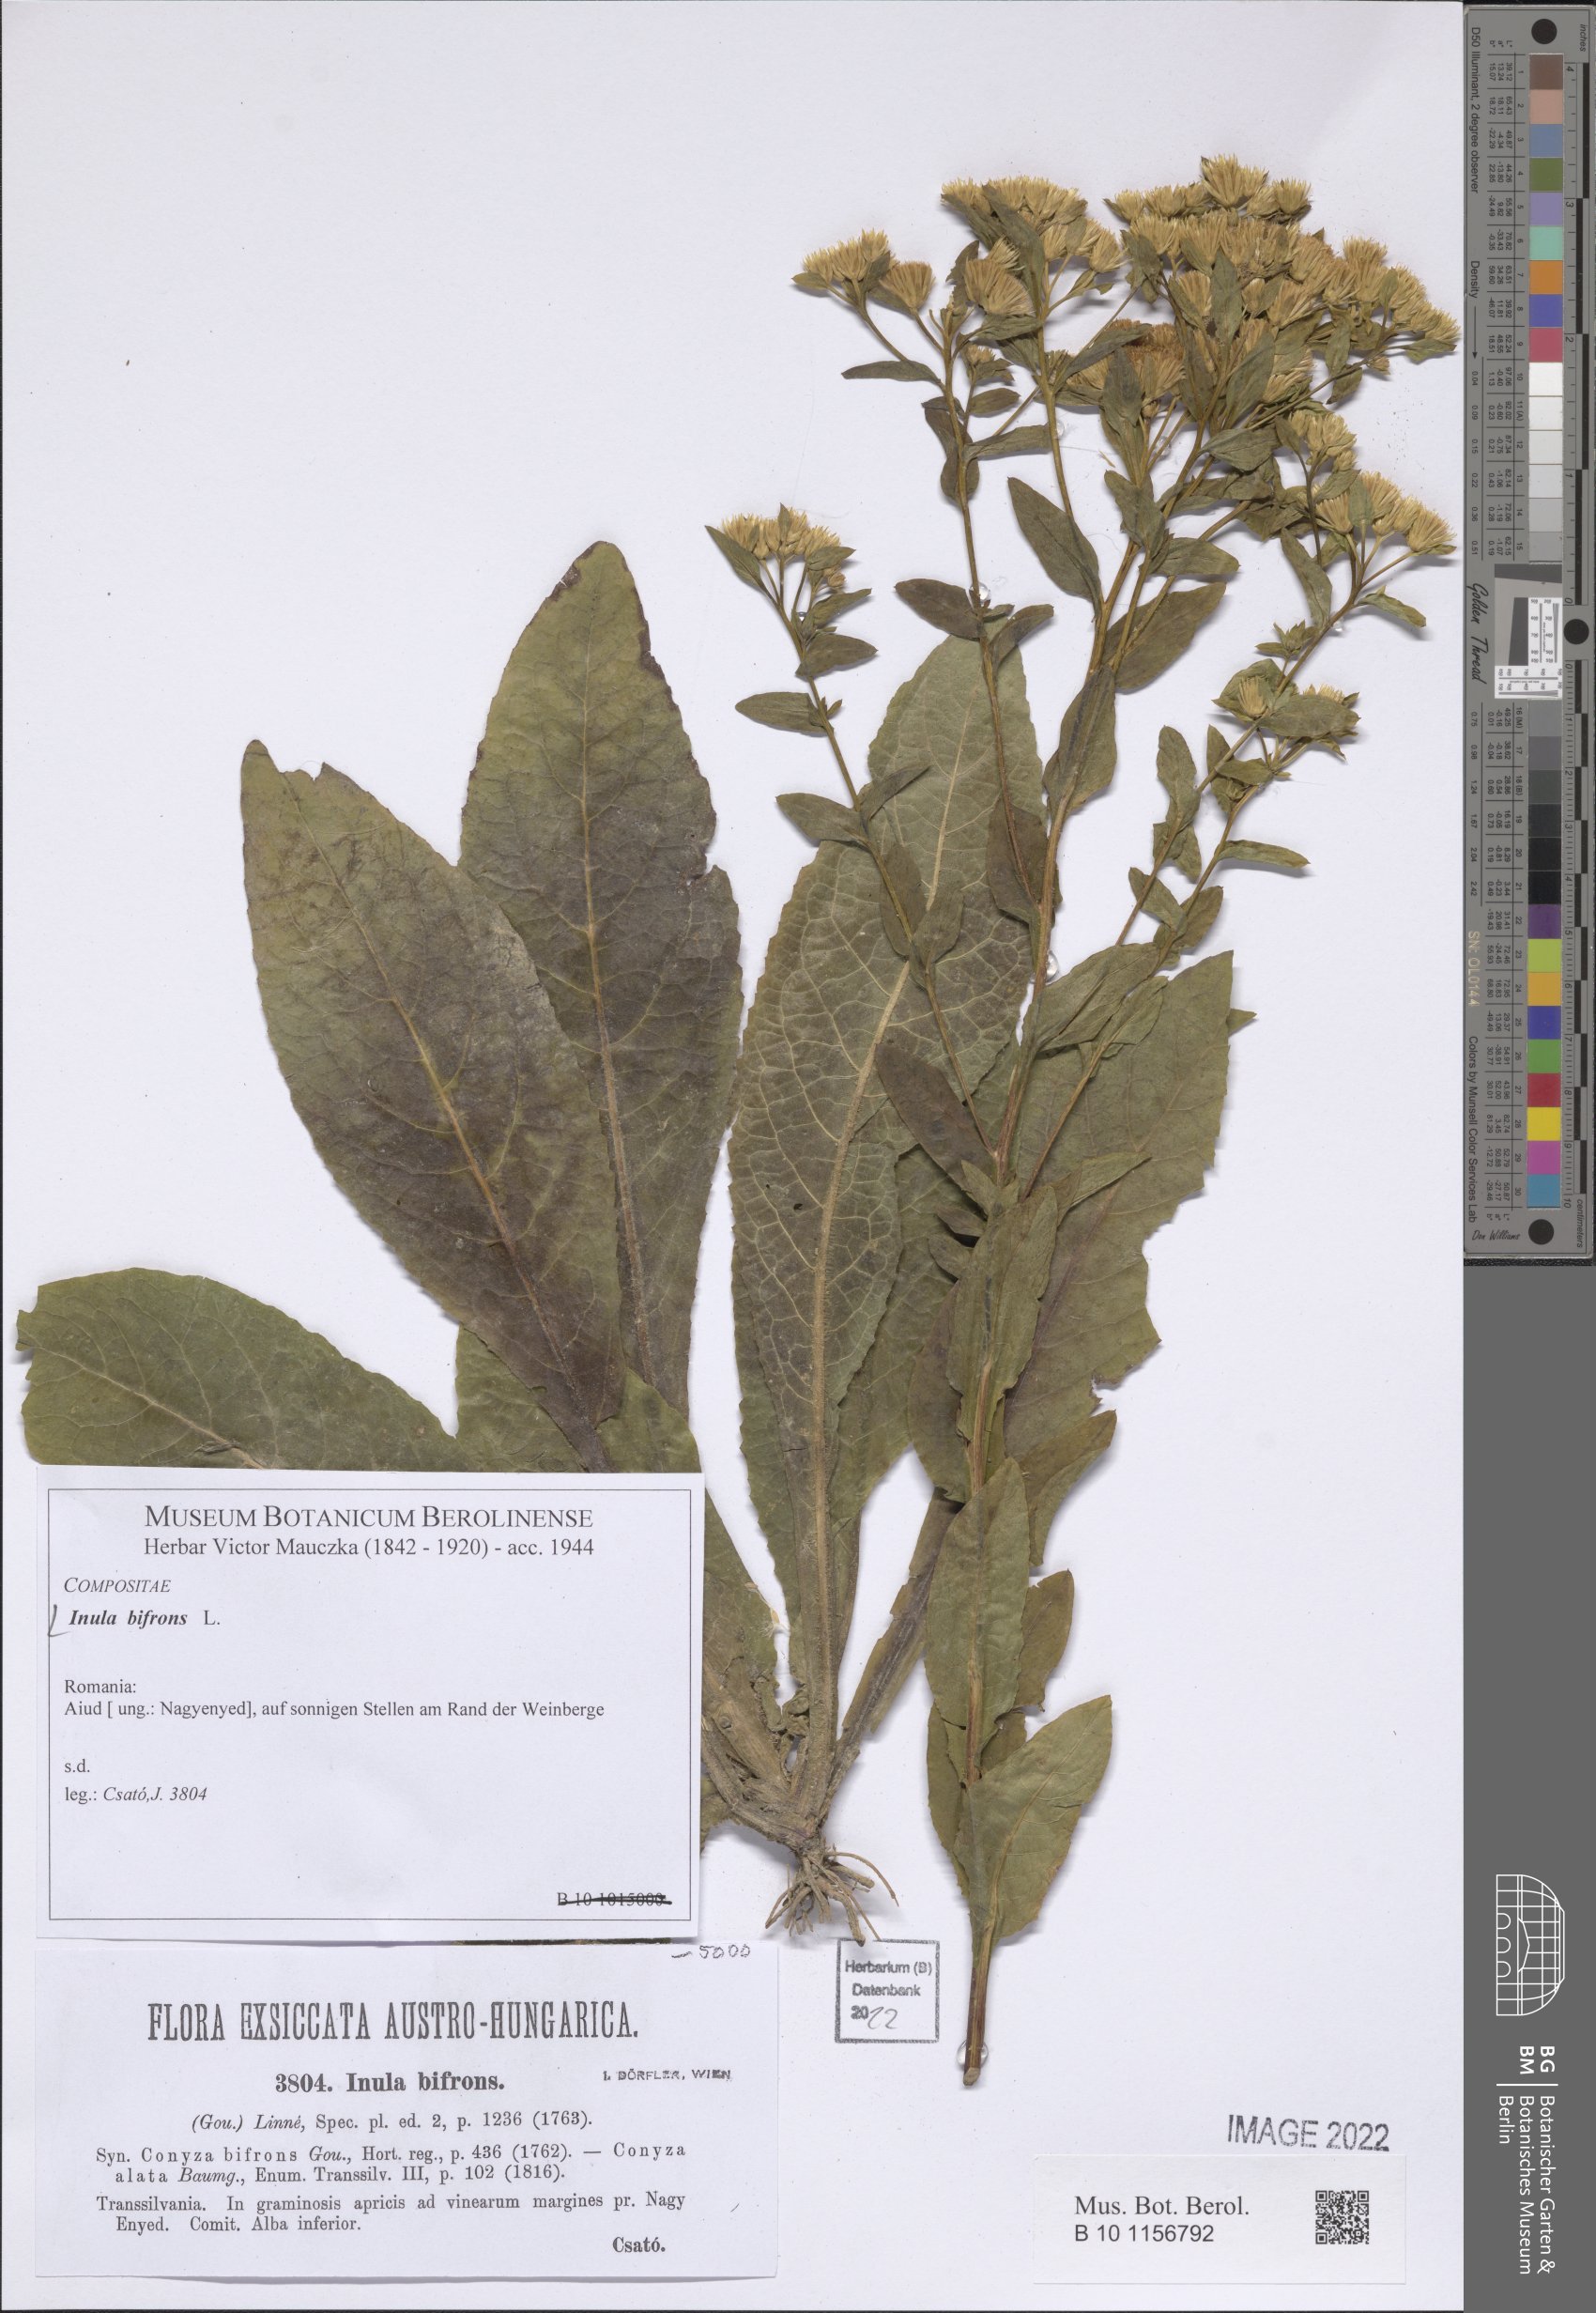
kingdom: Plantae
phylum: Tracheophyta
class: Magnoliopsida
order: Asterales
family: Asteraceae
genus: Pentanema
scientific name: Pentanema bifrons
